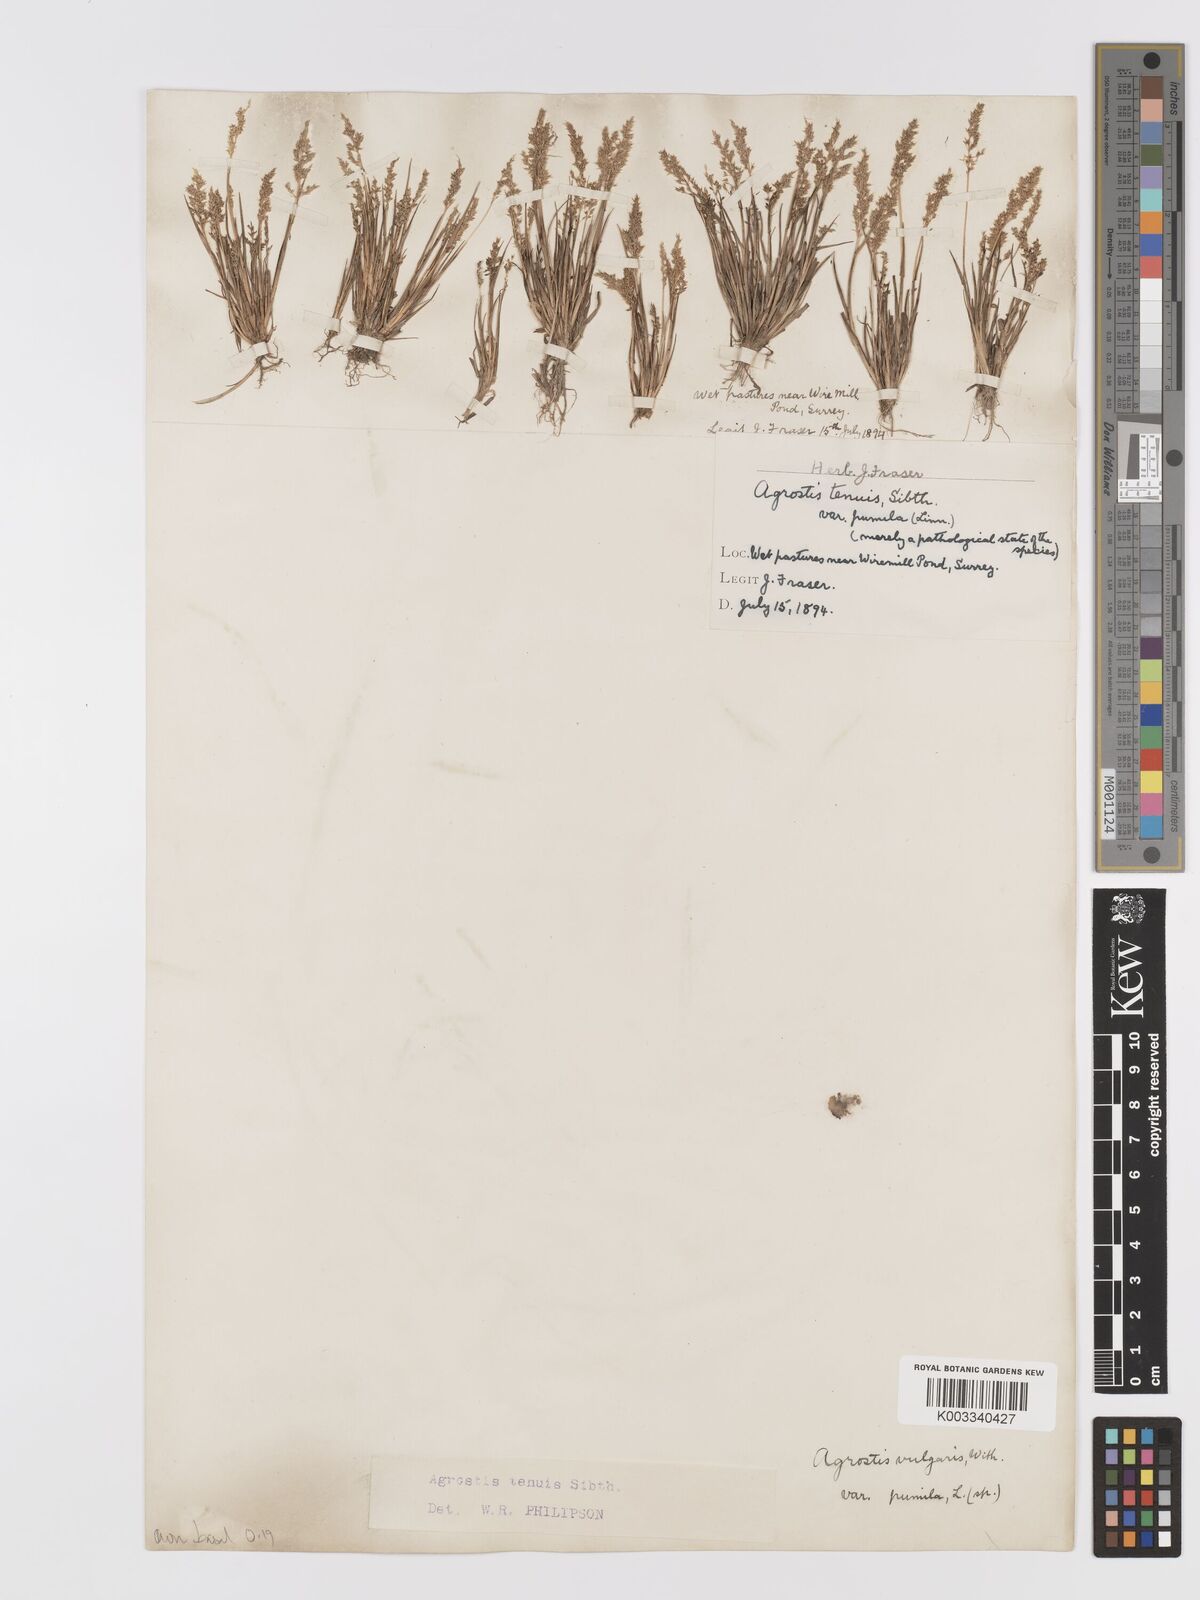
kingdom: Plantae
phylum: Tracheophyta
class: Liliopsida
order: Poales
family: Poaceae
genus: Agrostis
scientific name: Agrostis capillaris
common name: Colonial bentgrass
